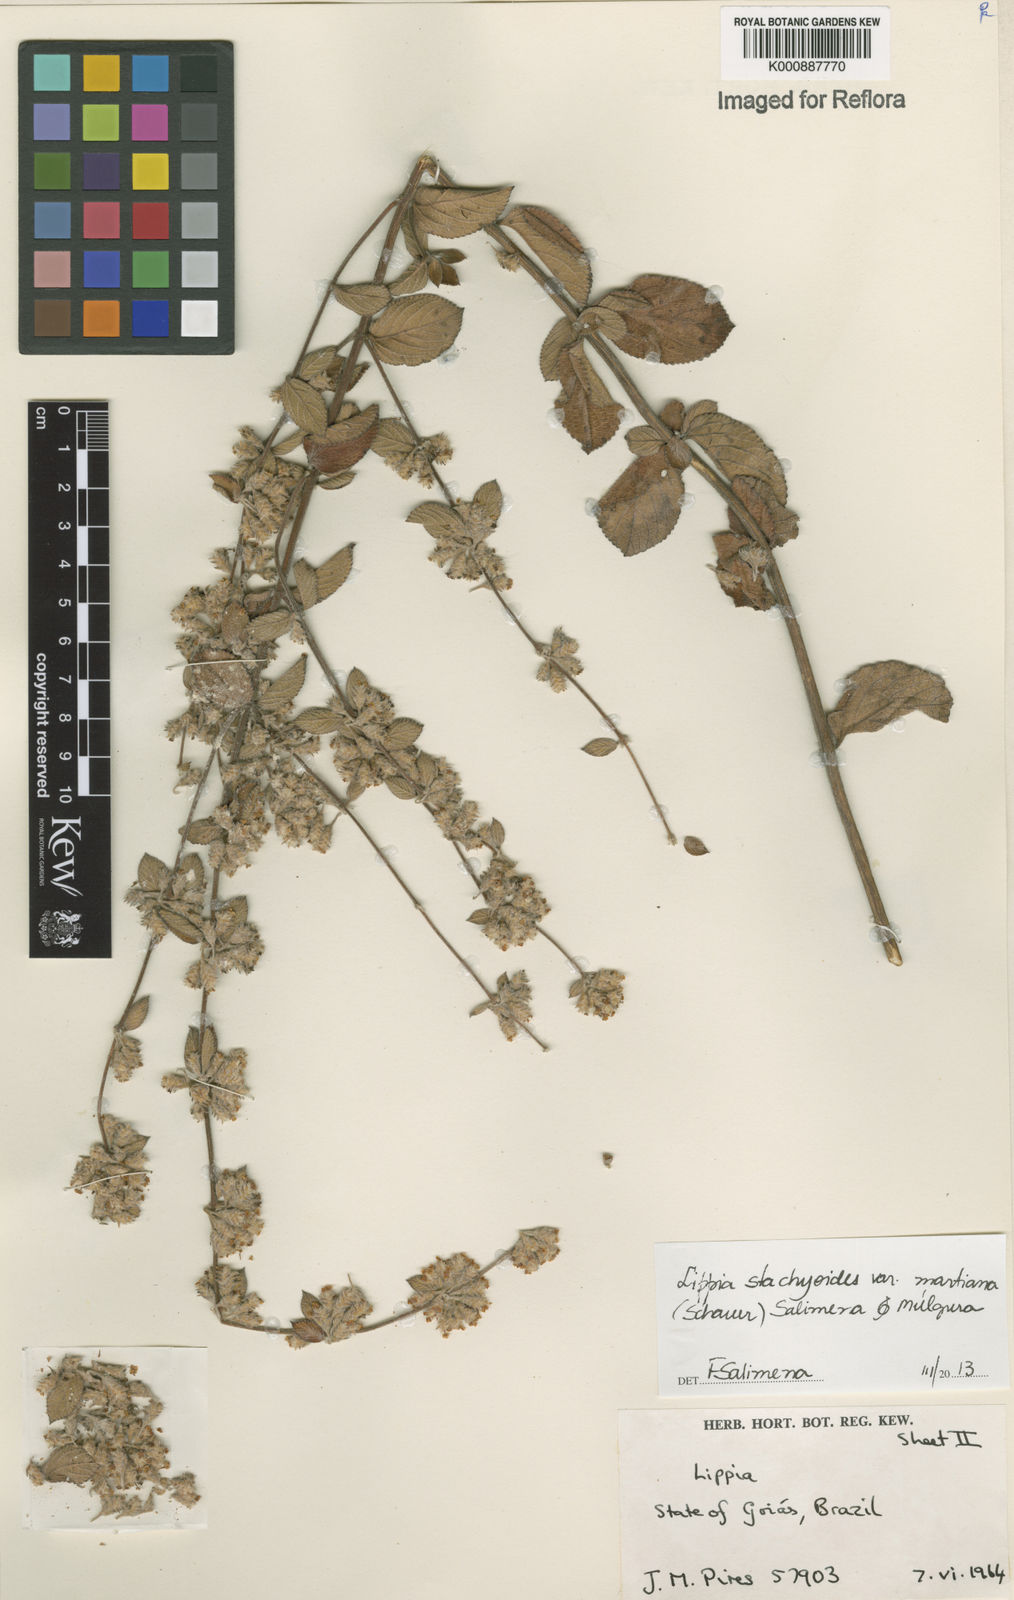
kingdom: Plantae
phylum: Tracheophyta
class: Magnoliopsida
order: Lamiales
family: Verbenaceae
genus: Lippia
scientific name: Lippia stachyoides
